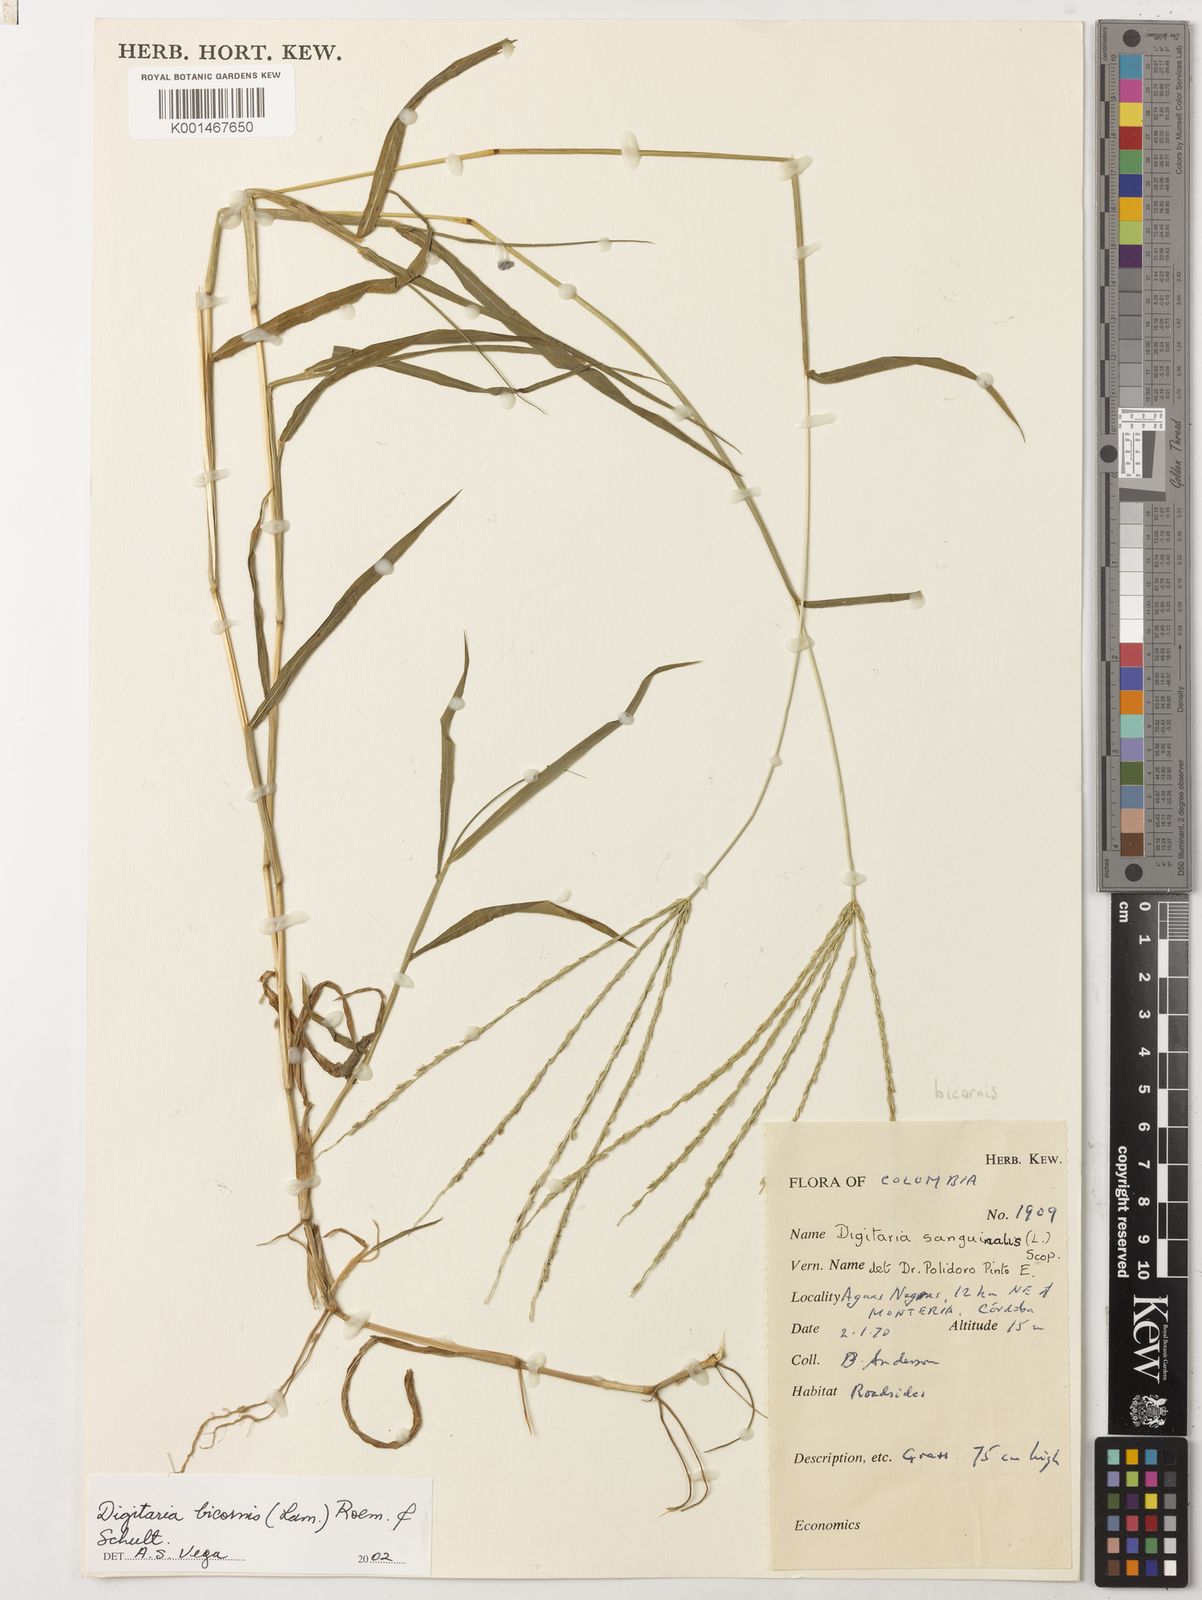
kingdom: Plantae
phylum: Tracheophyta
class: Liliopsida
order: Poales
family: Poaceae
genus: Digitaria
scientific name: Digitaria bicornis
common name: Asian crabgrass
